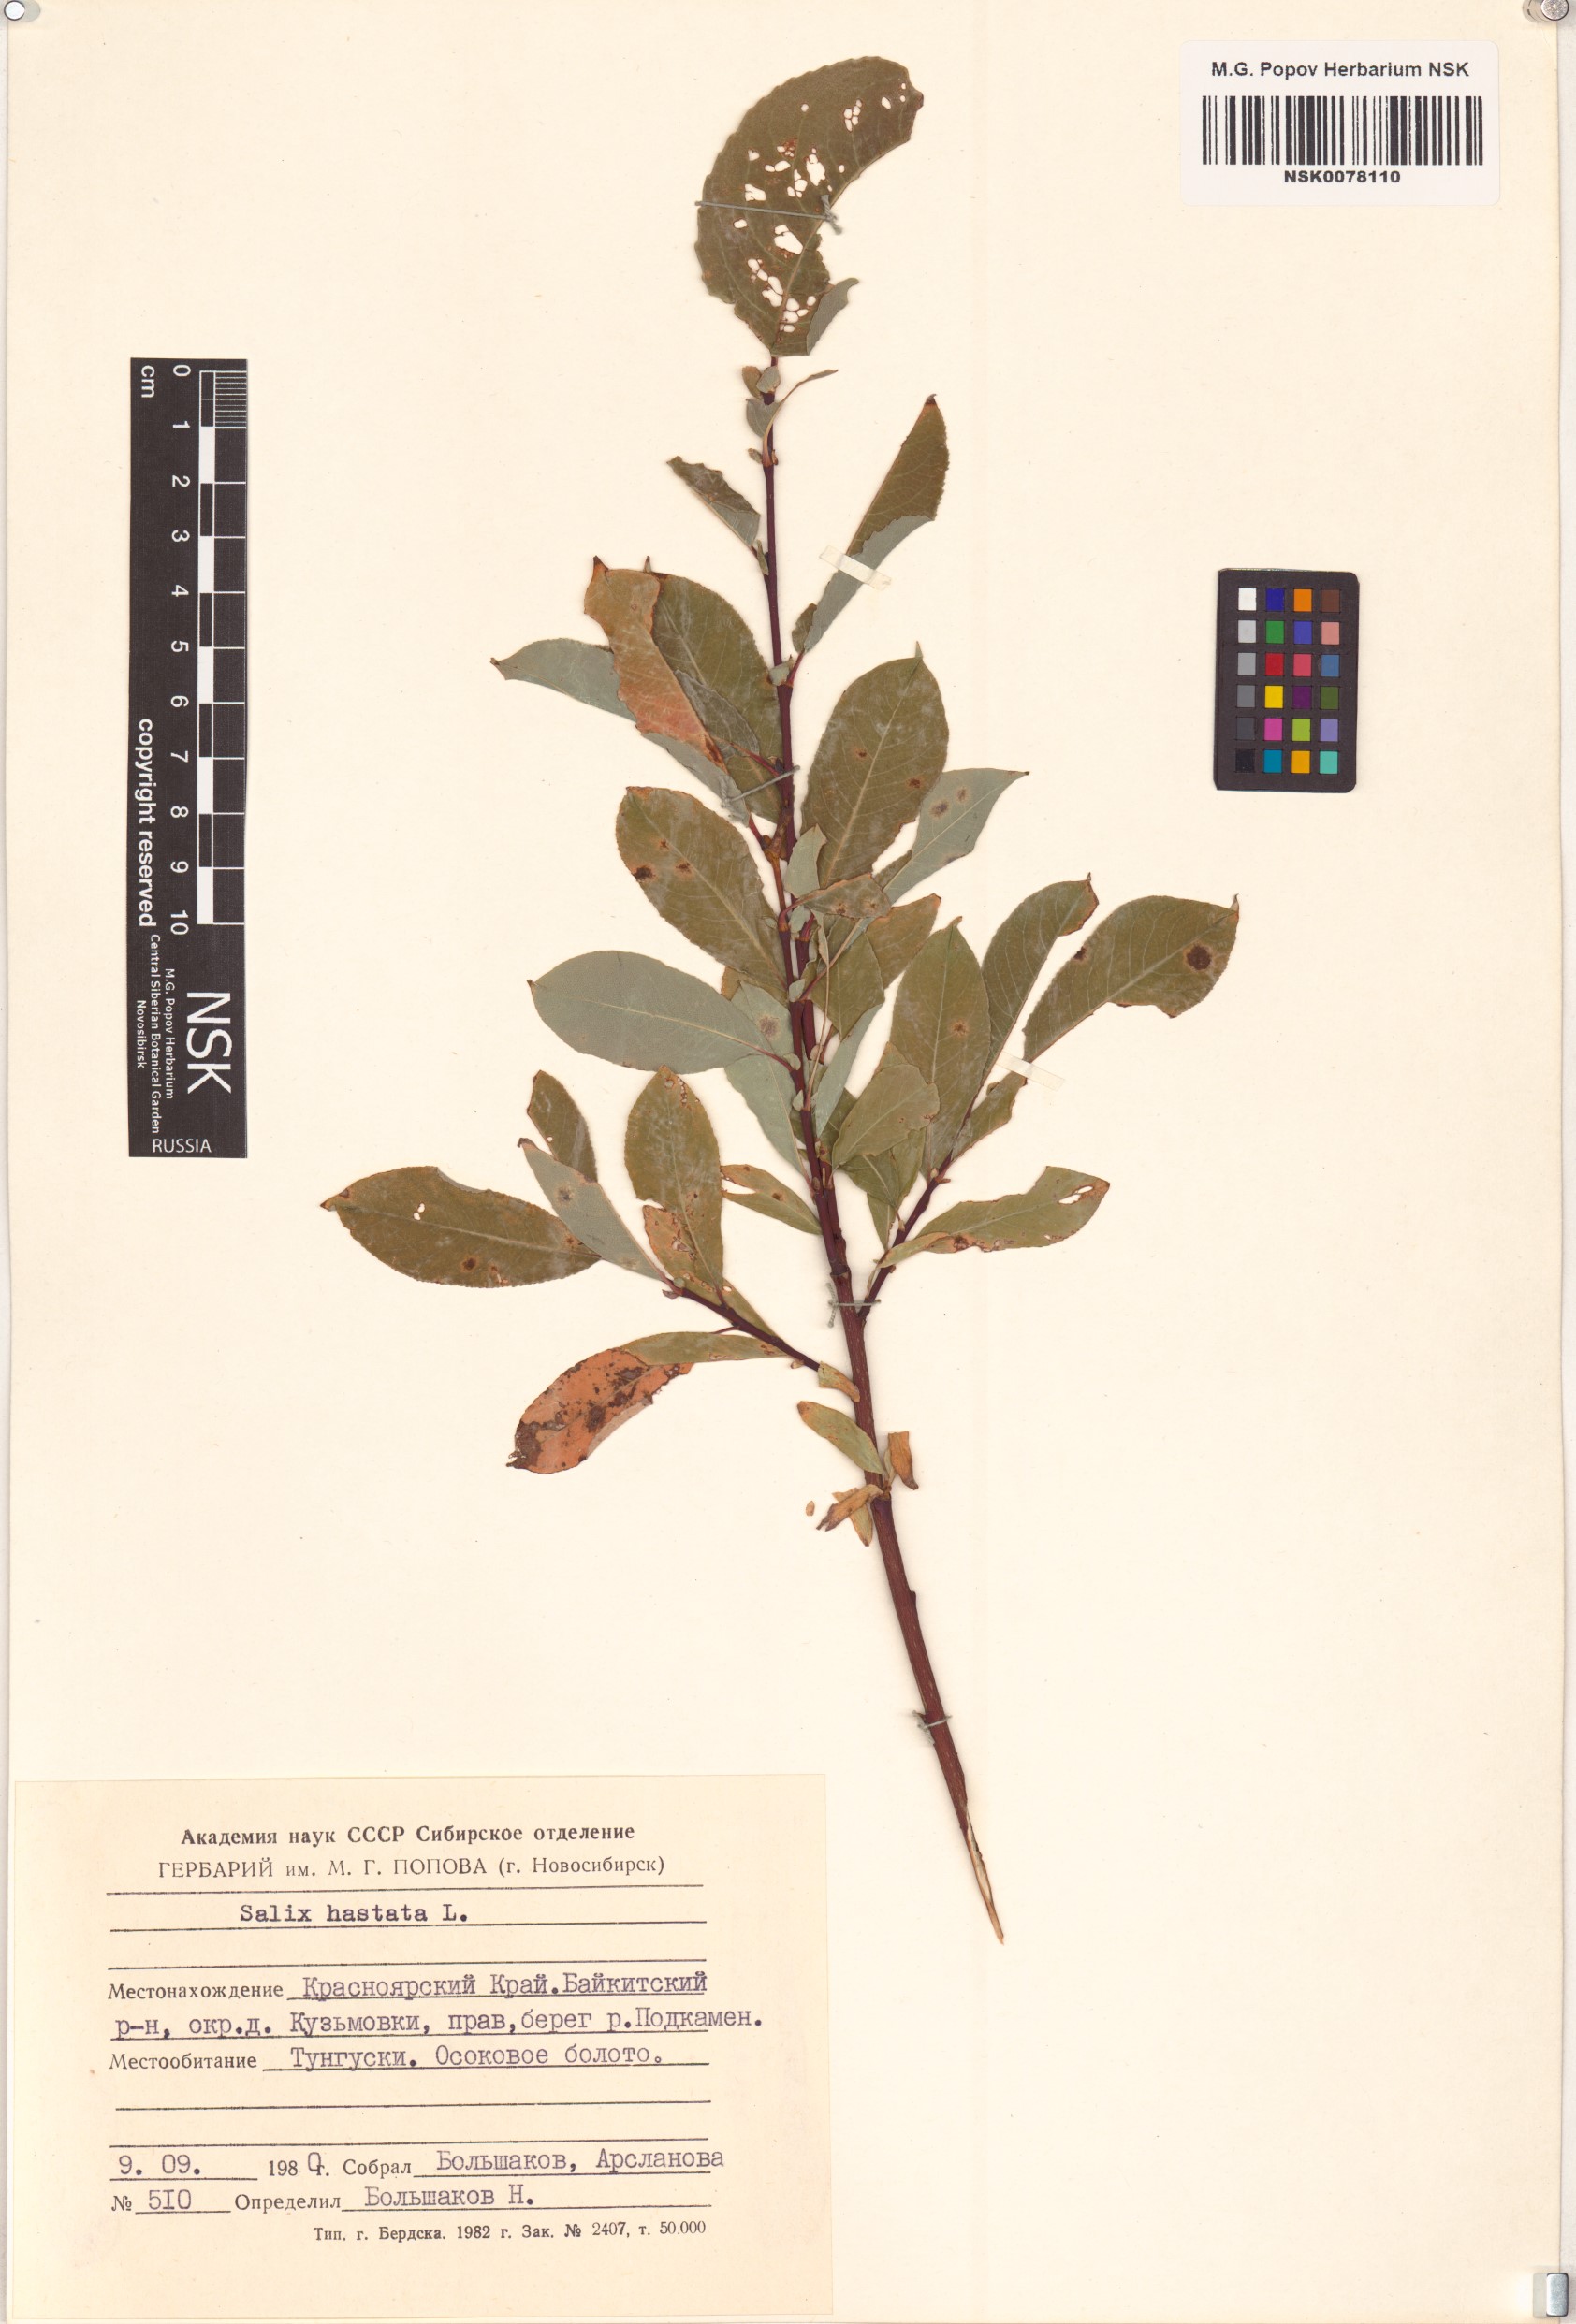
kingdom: Plantae
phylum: Tracheophyta
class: Magnoliopsida
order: Malpighiales
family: Salicaceae
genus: Salix
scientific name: Salix hastata
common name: Halberd willow
